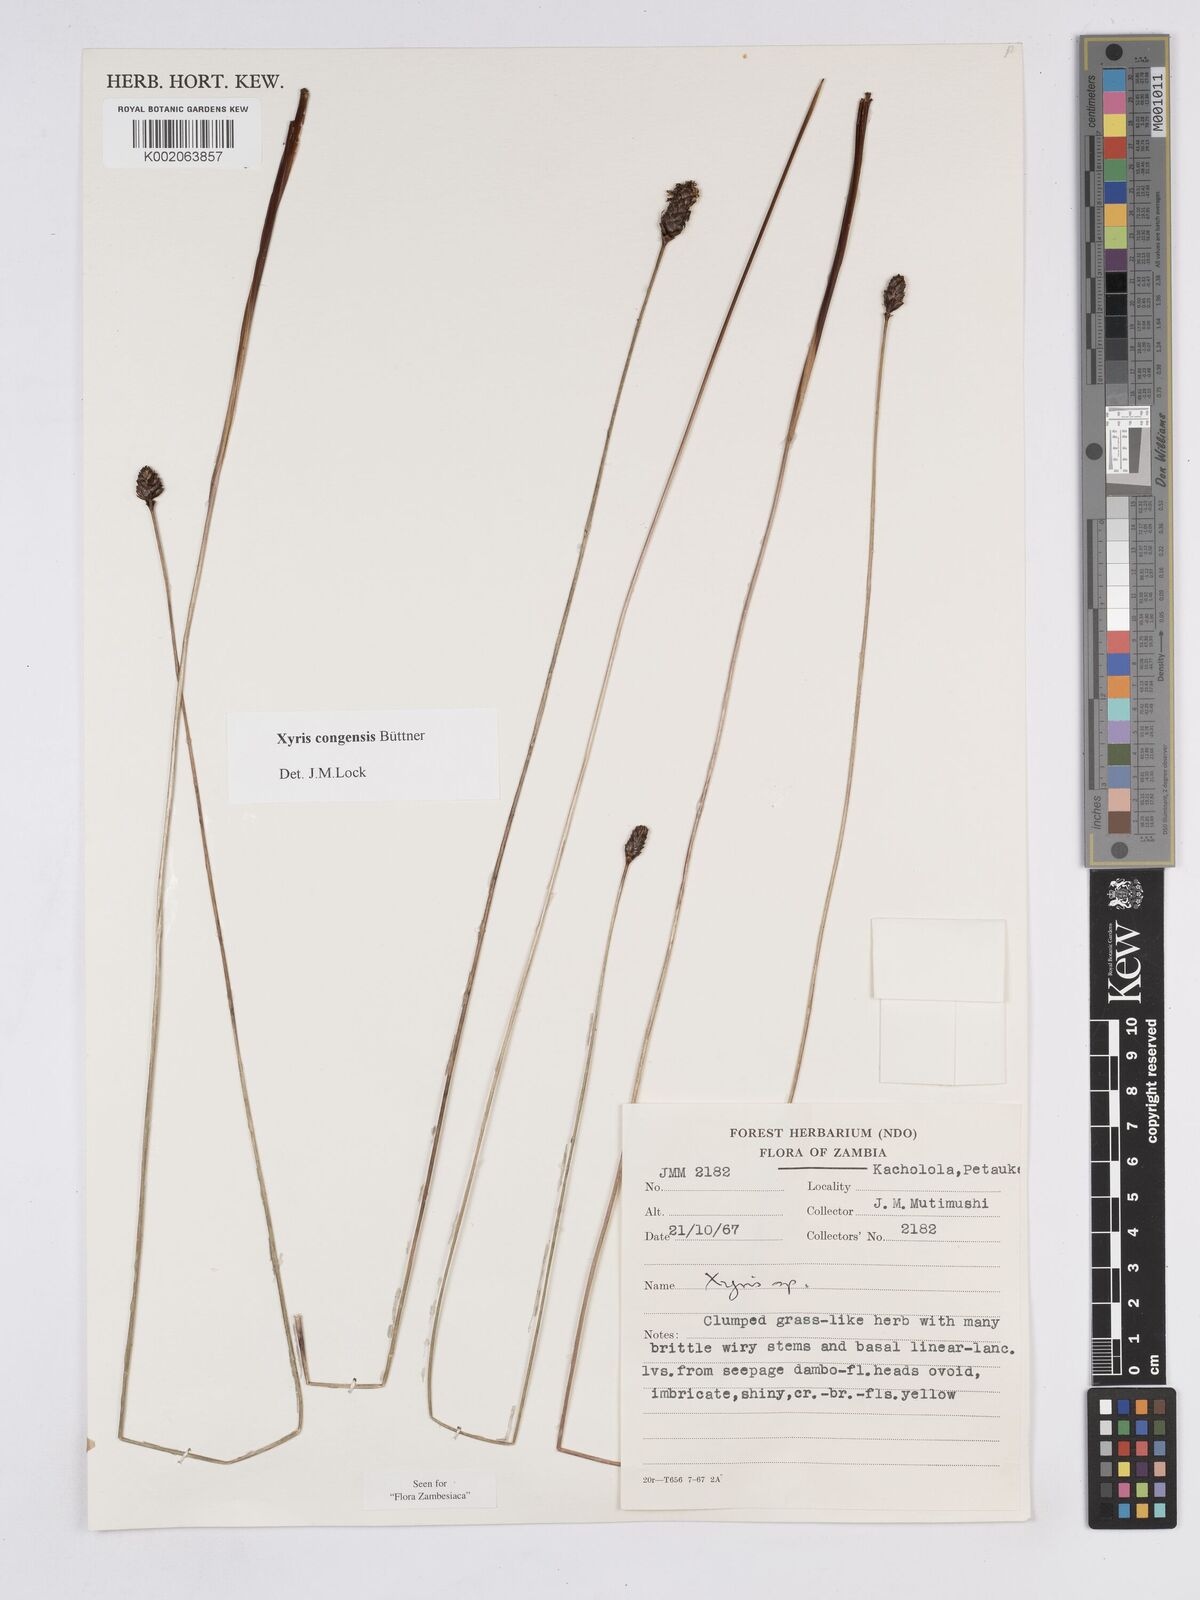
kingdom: Plantae
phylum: Tracheophyta
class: Liliopsida
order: Poales
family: Xyridaceae
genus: Xyris
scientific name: Xyris congensis
